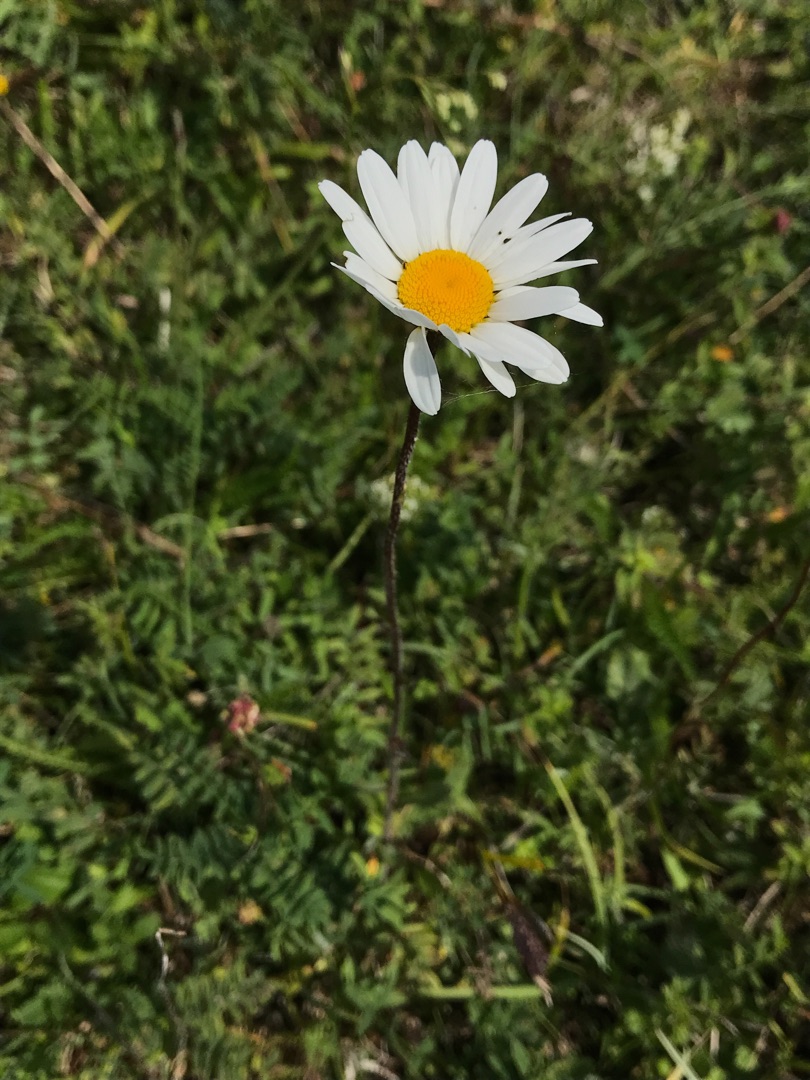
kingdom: Plantae
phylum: Tracheophyta
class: Magnoliopsida
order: Asterales
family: Asteraceae
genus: Leucanthemum
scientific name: Leucanthemum vulgare
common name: Hvid okseøje
